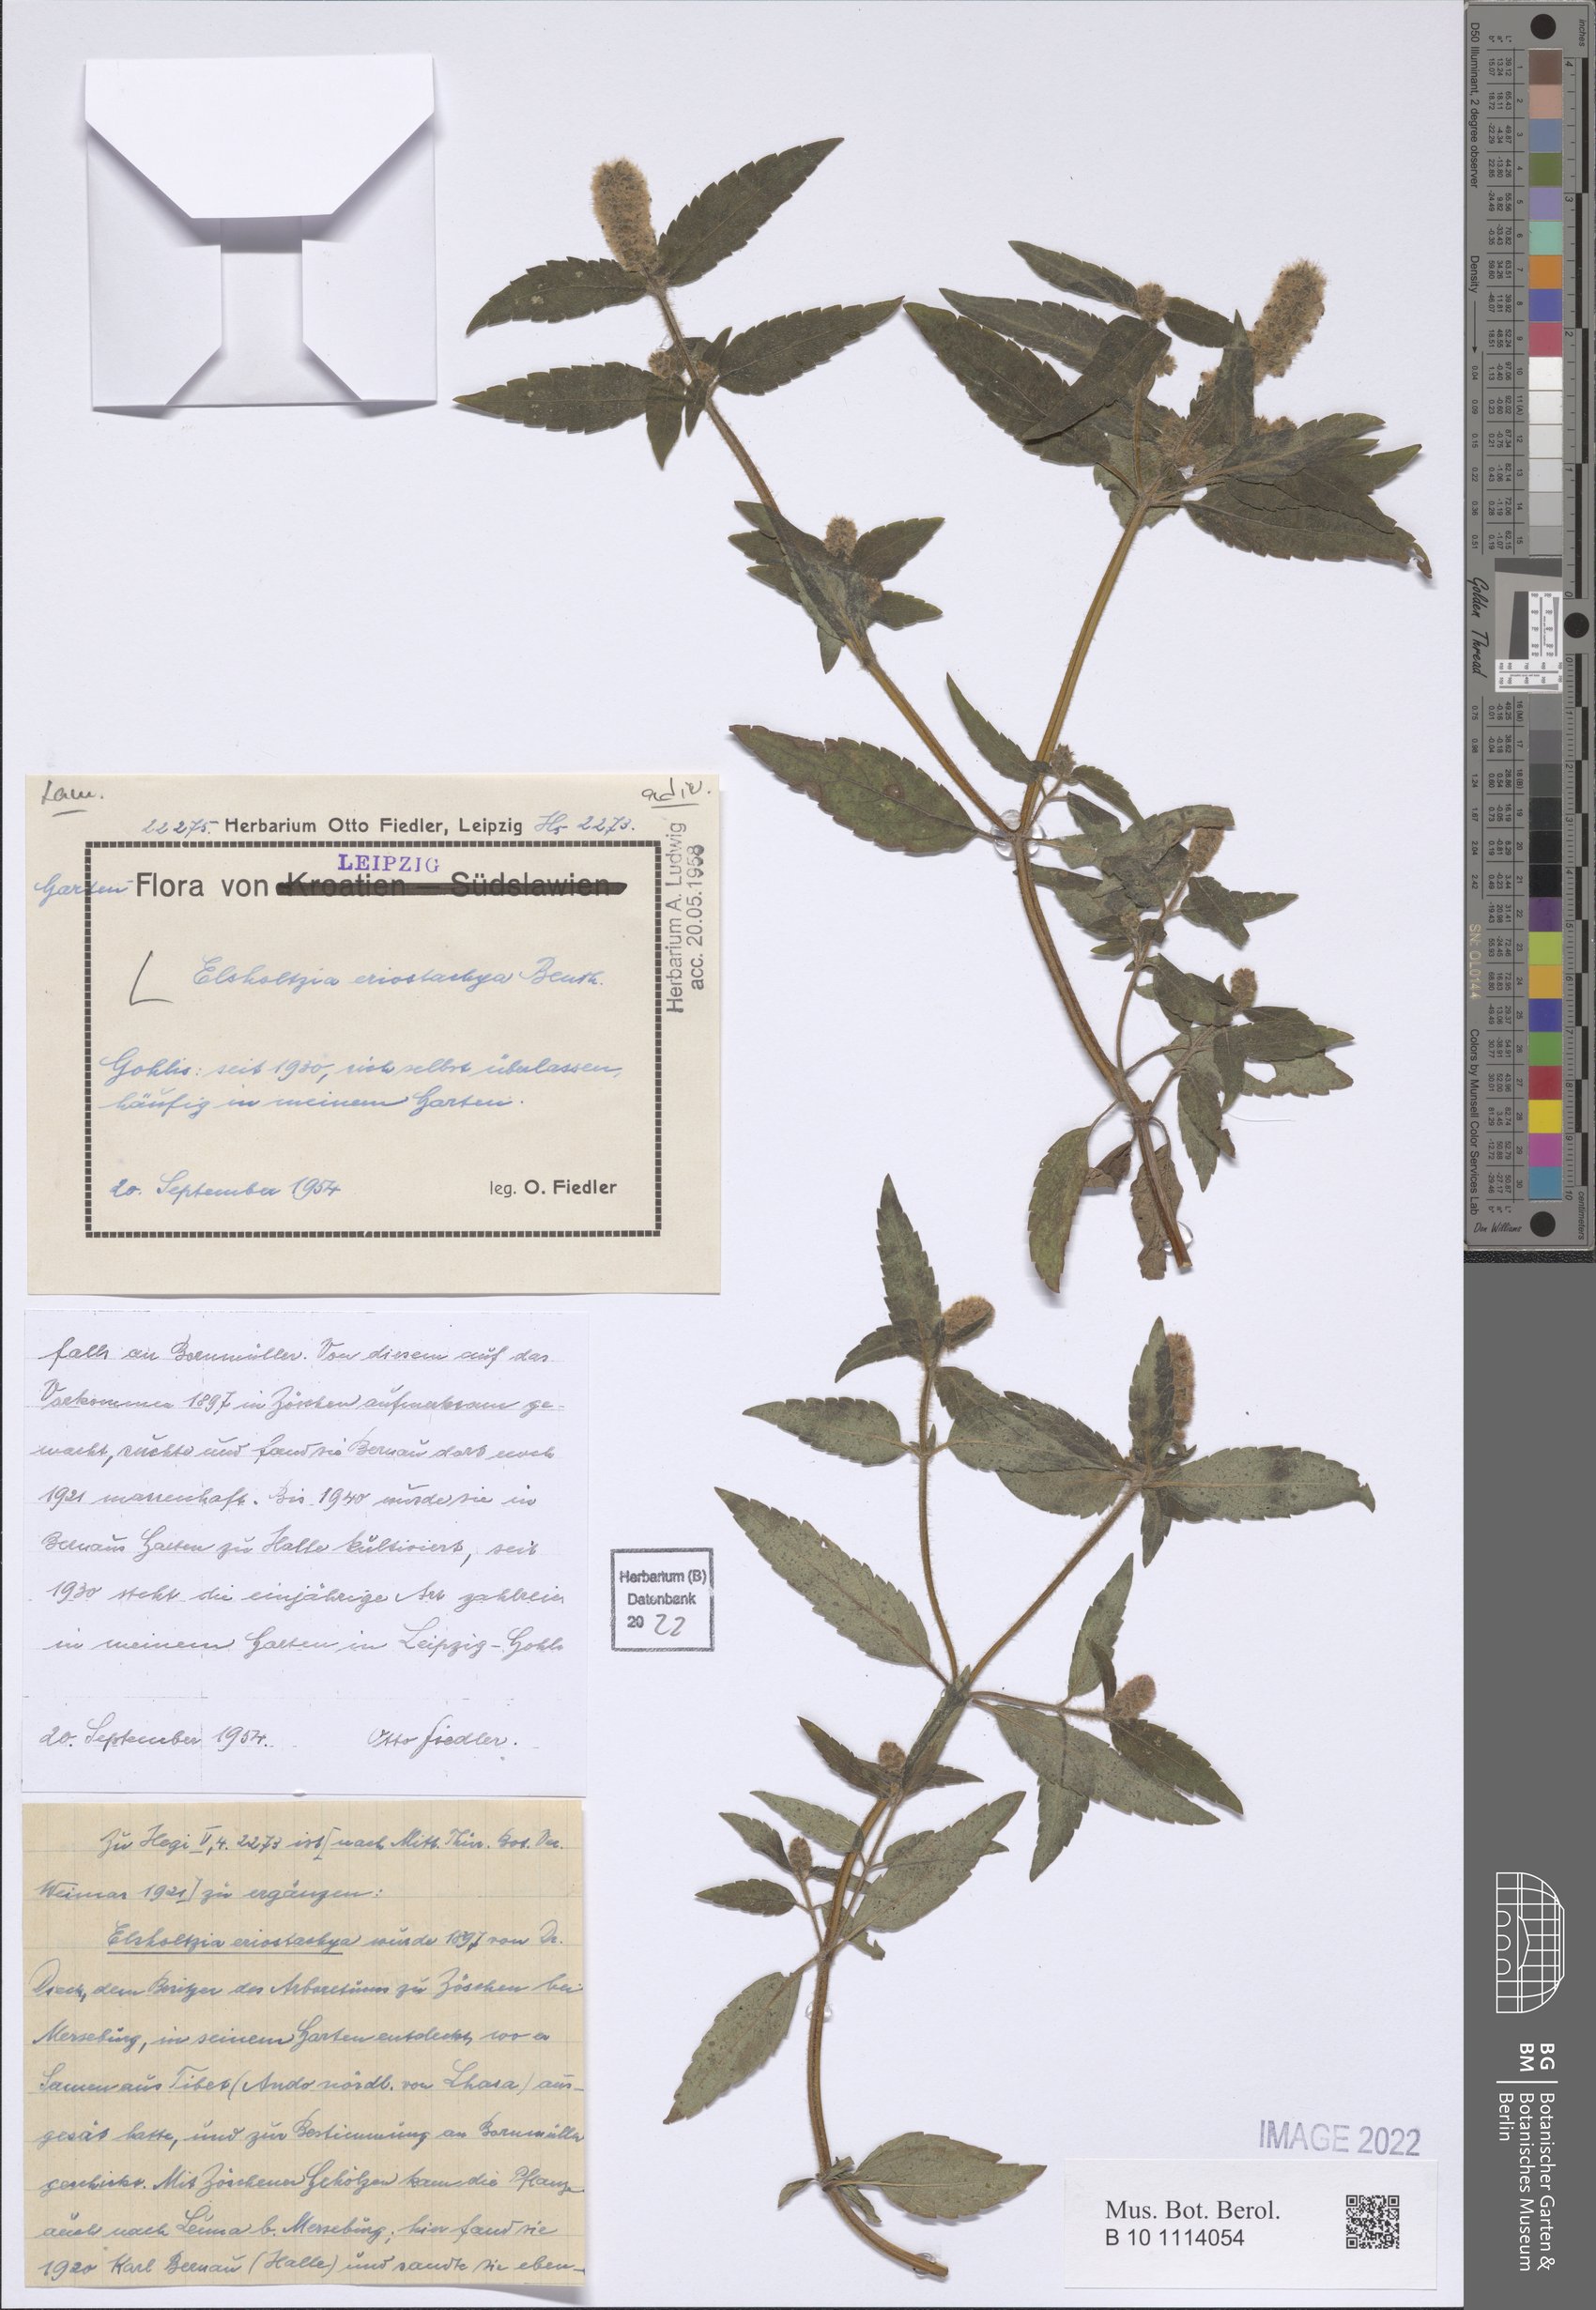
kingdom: Plantae
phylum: Tracheophyta
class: Magnoliopsida
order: Lamiales
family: Lamiaceae
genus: Elsholtzia
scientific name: Elsholtzia eriostachya
